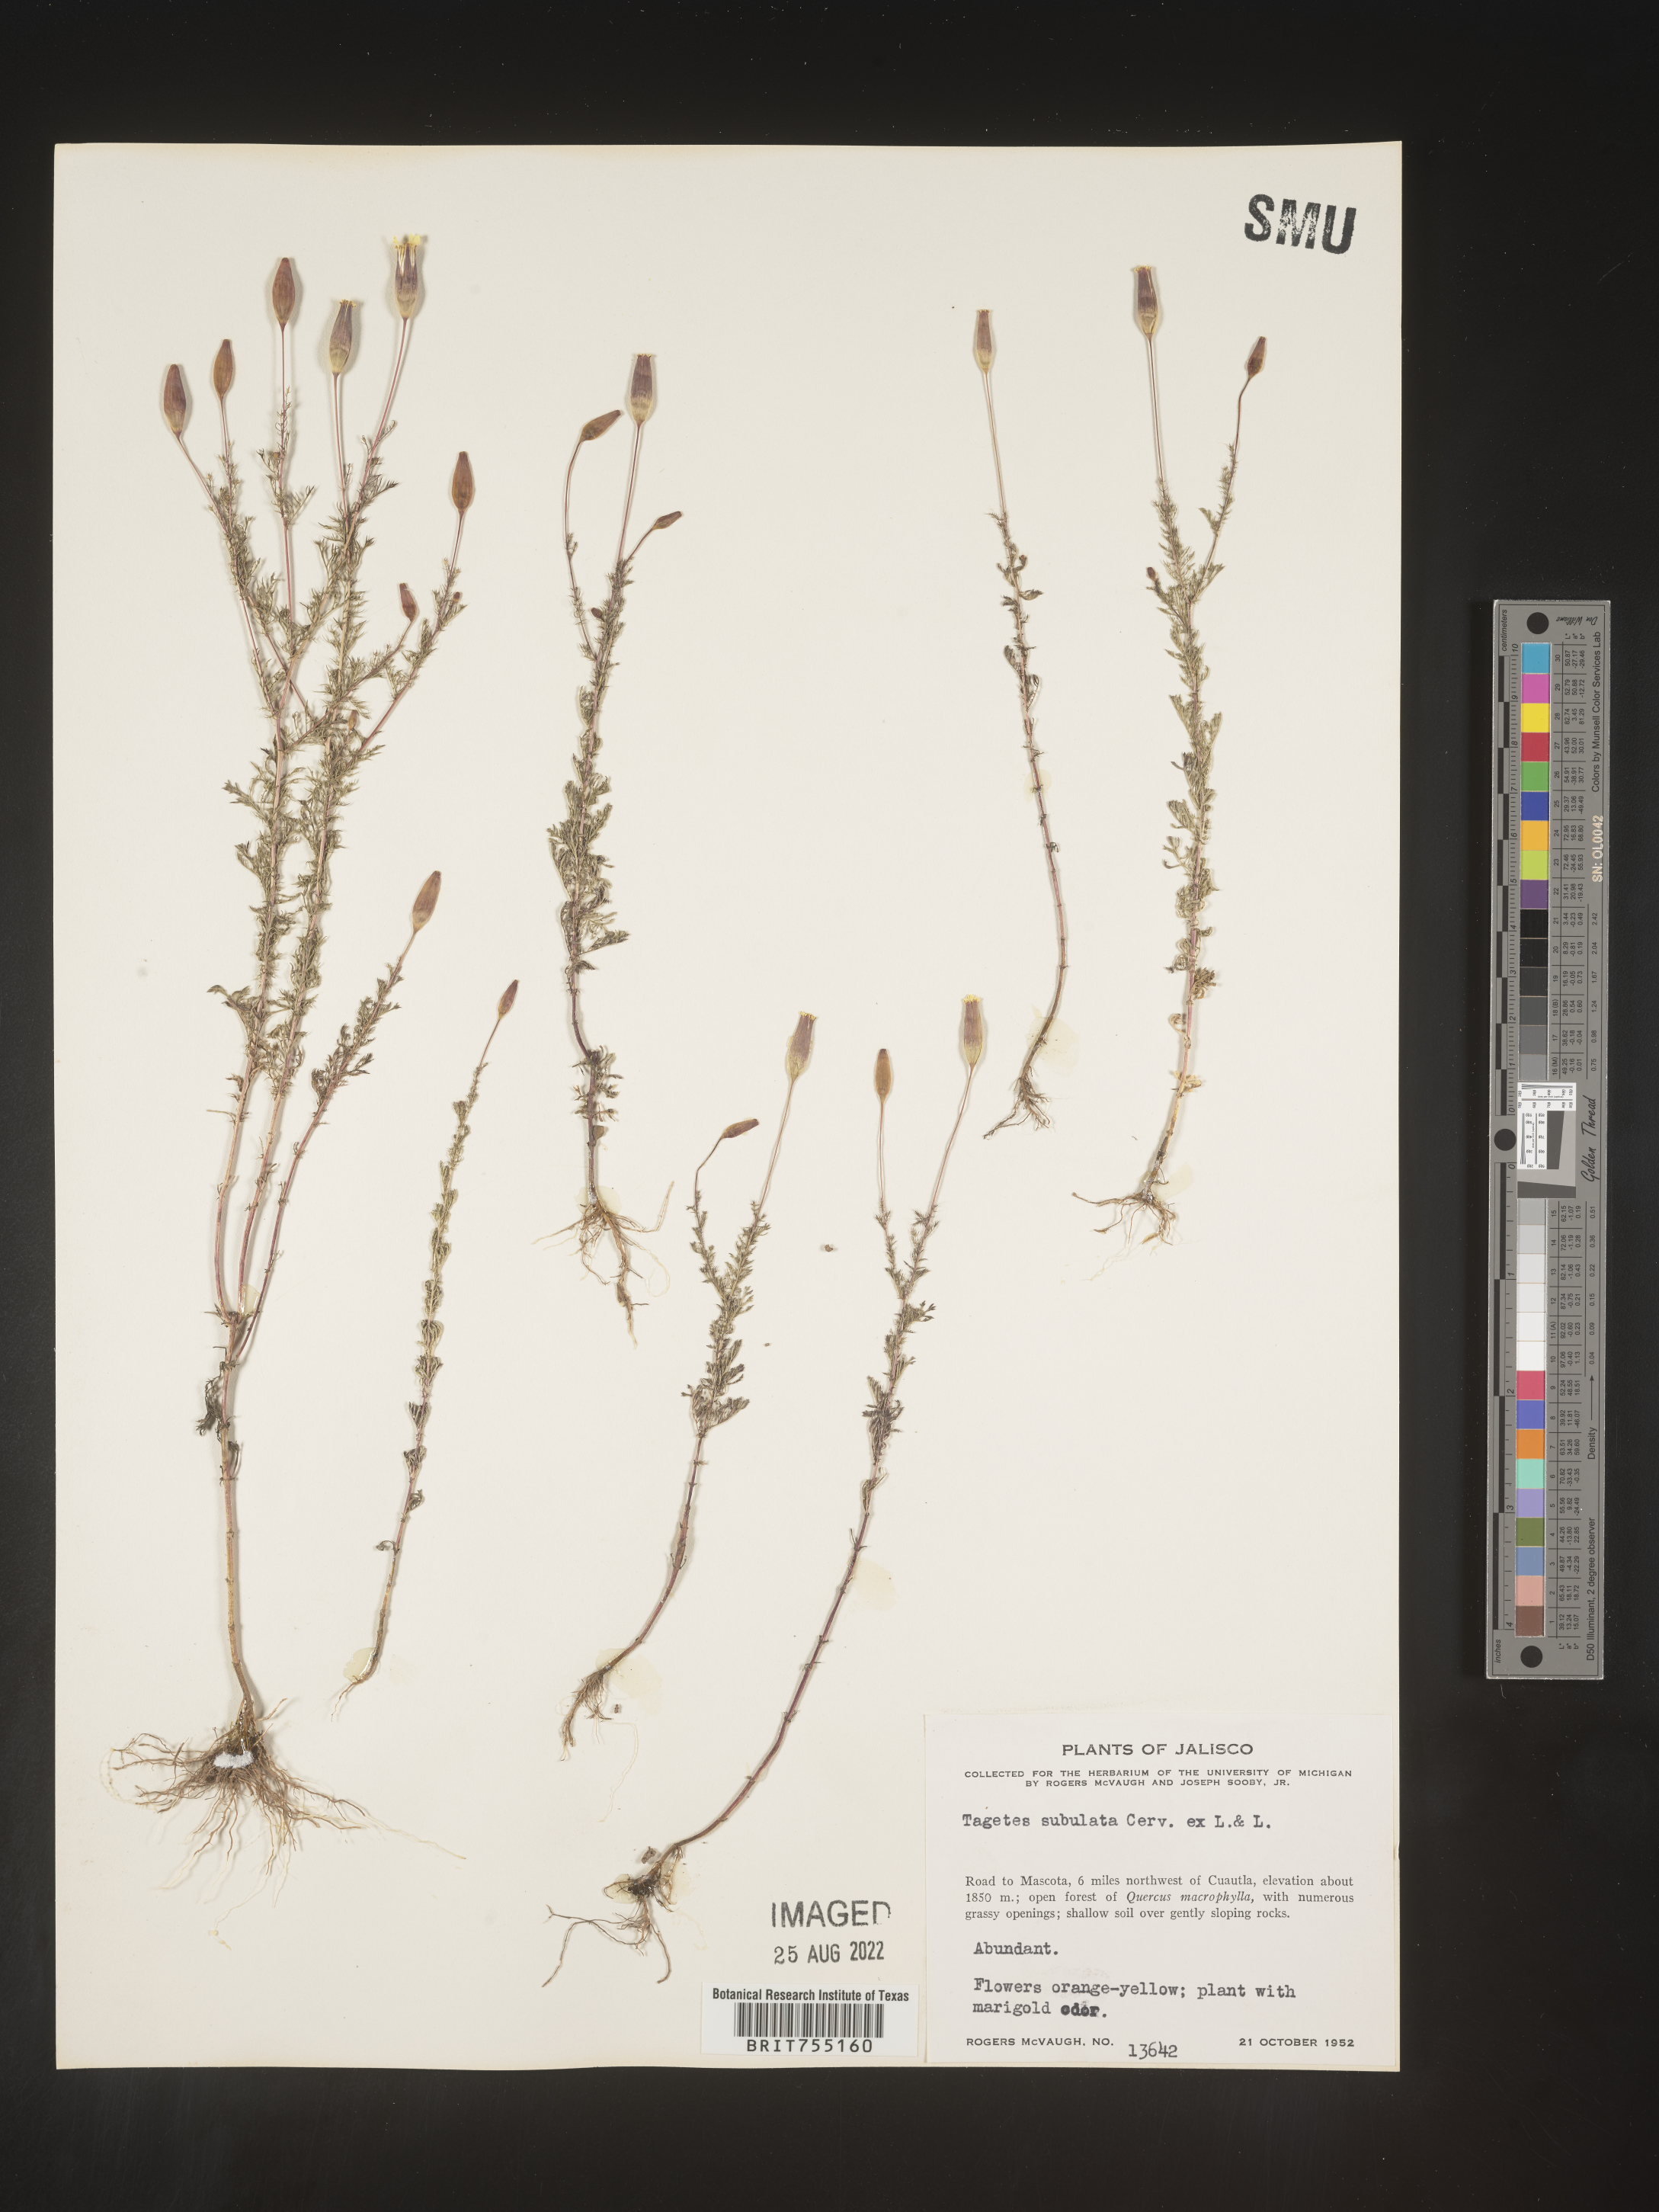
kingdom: Plantae
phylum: Tracheophyta
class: Magnoliopsida
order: Asterales
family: Asteraceae
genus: Tagetes
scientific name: Tagetes
